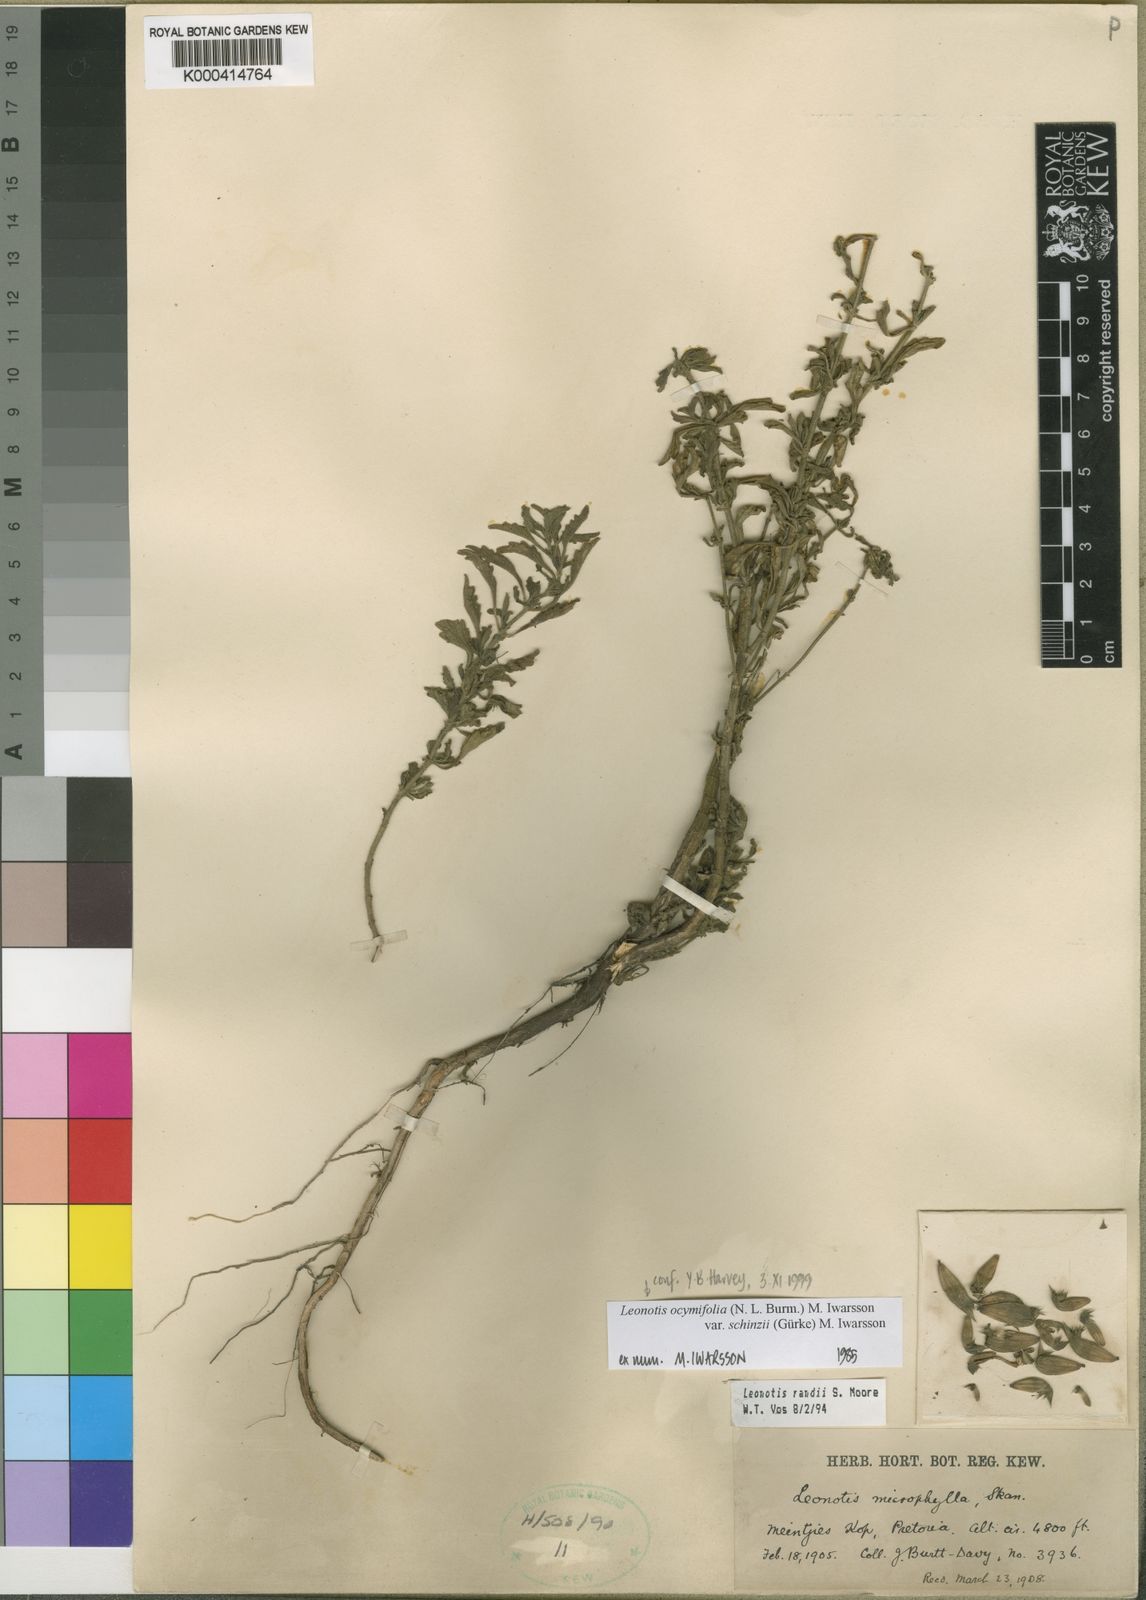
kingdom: Plantae
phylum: Tracheophyta
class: Magnoliopsida
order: Lamiales
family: Lamiaceae
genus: Leonotis
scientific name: Leonotis ocymifolia
